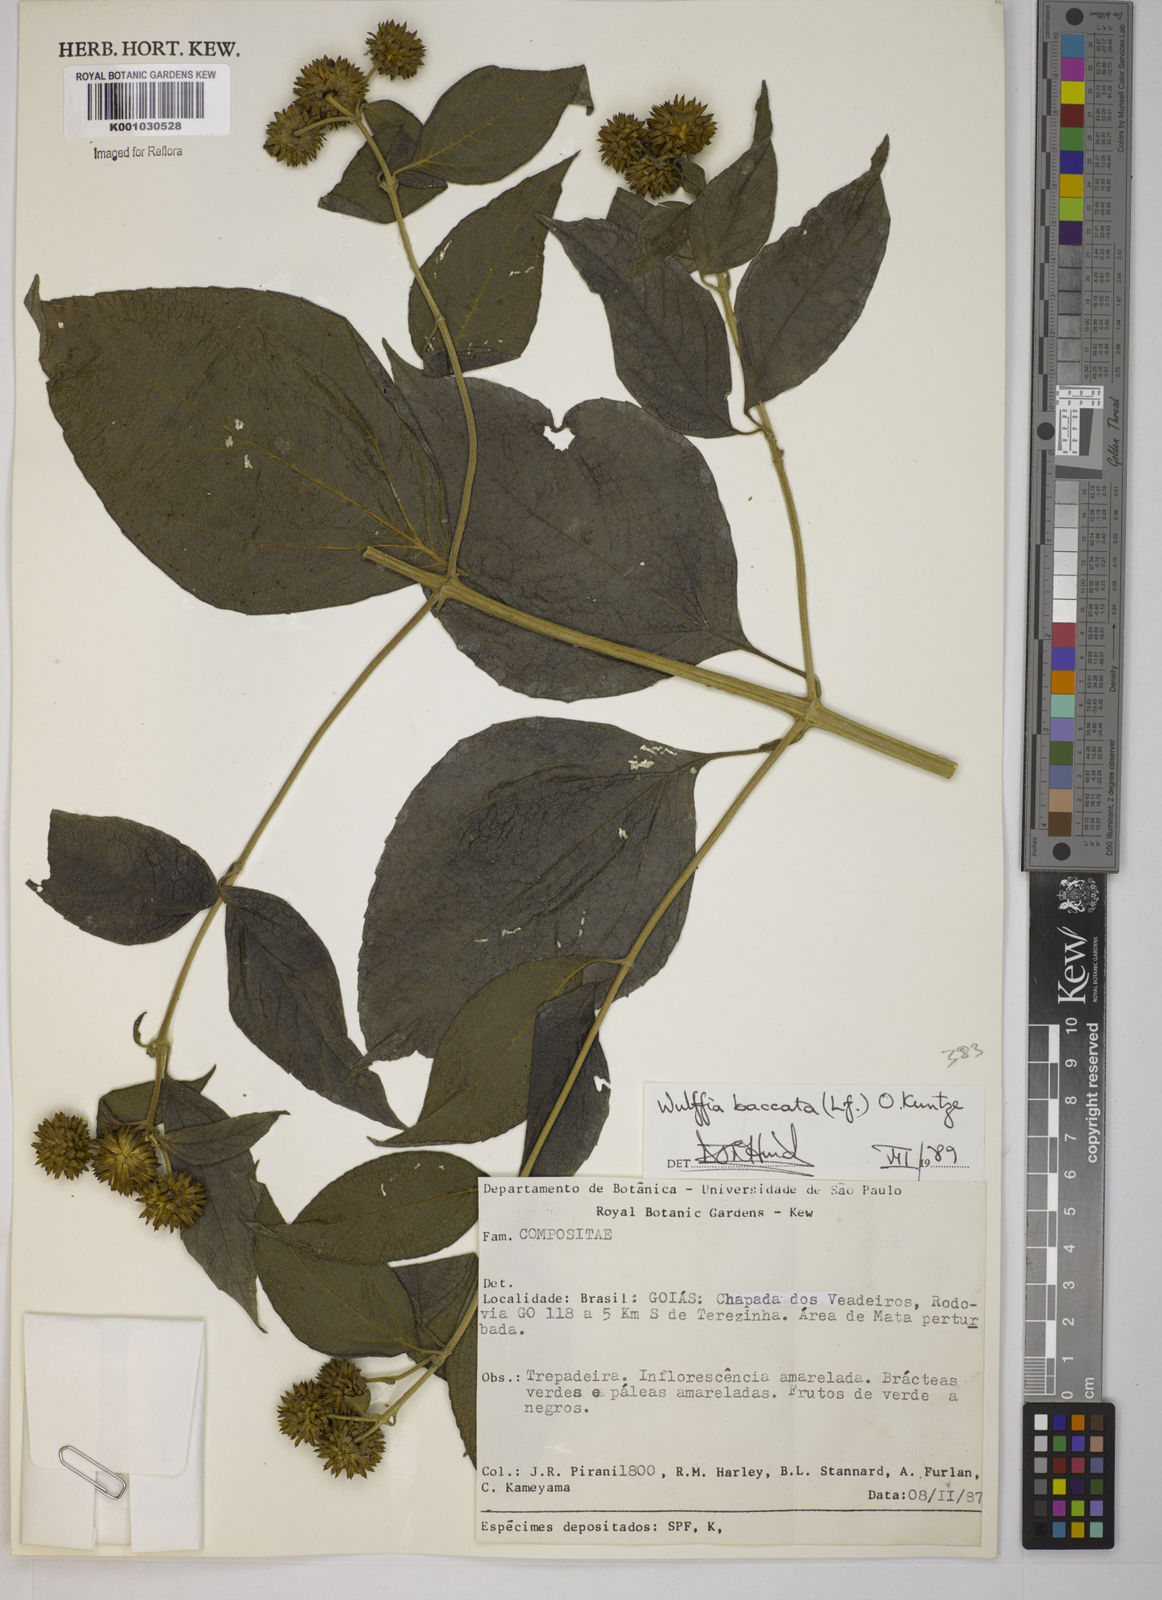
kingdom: Plantae
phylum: Tracheophyta
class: Magnoliopsida
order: Asterales
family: Asteraceae
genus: Tilesia
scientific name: Tilesia baccata
